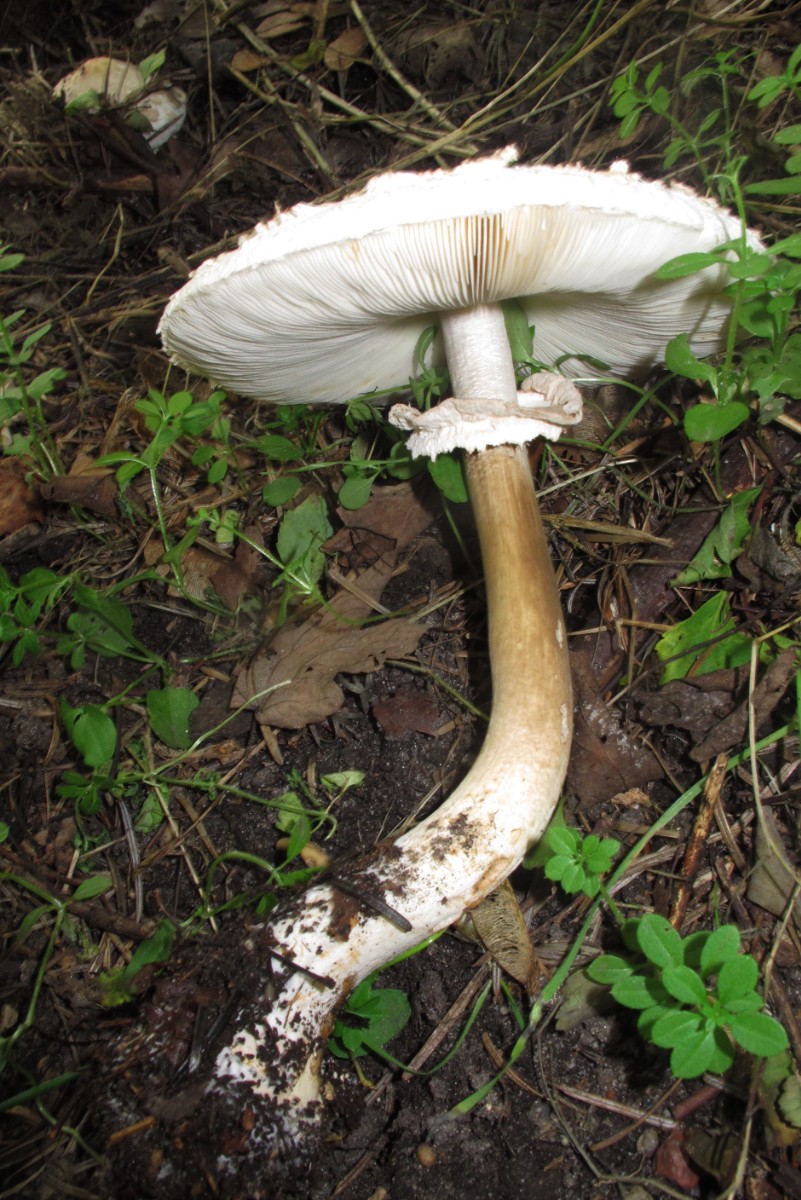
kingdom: Fungi
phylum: Basidiomycota
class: Agaricomycetes
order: Agaricales
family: Agaricaceae
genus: Chlorophyllum
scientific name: Chlorophyllum rhacodes
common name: ægte rabarberhat
